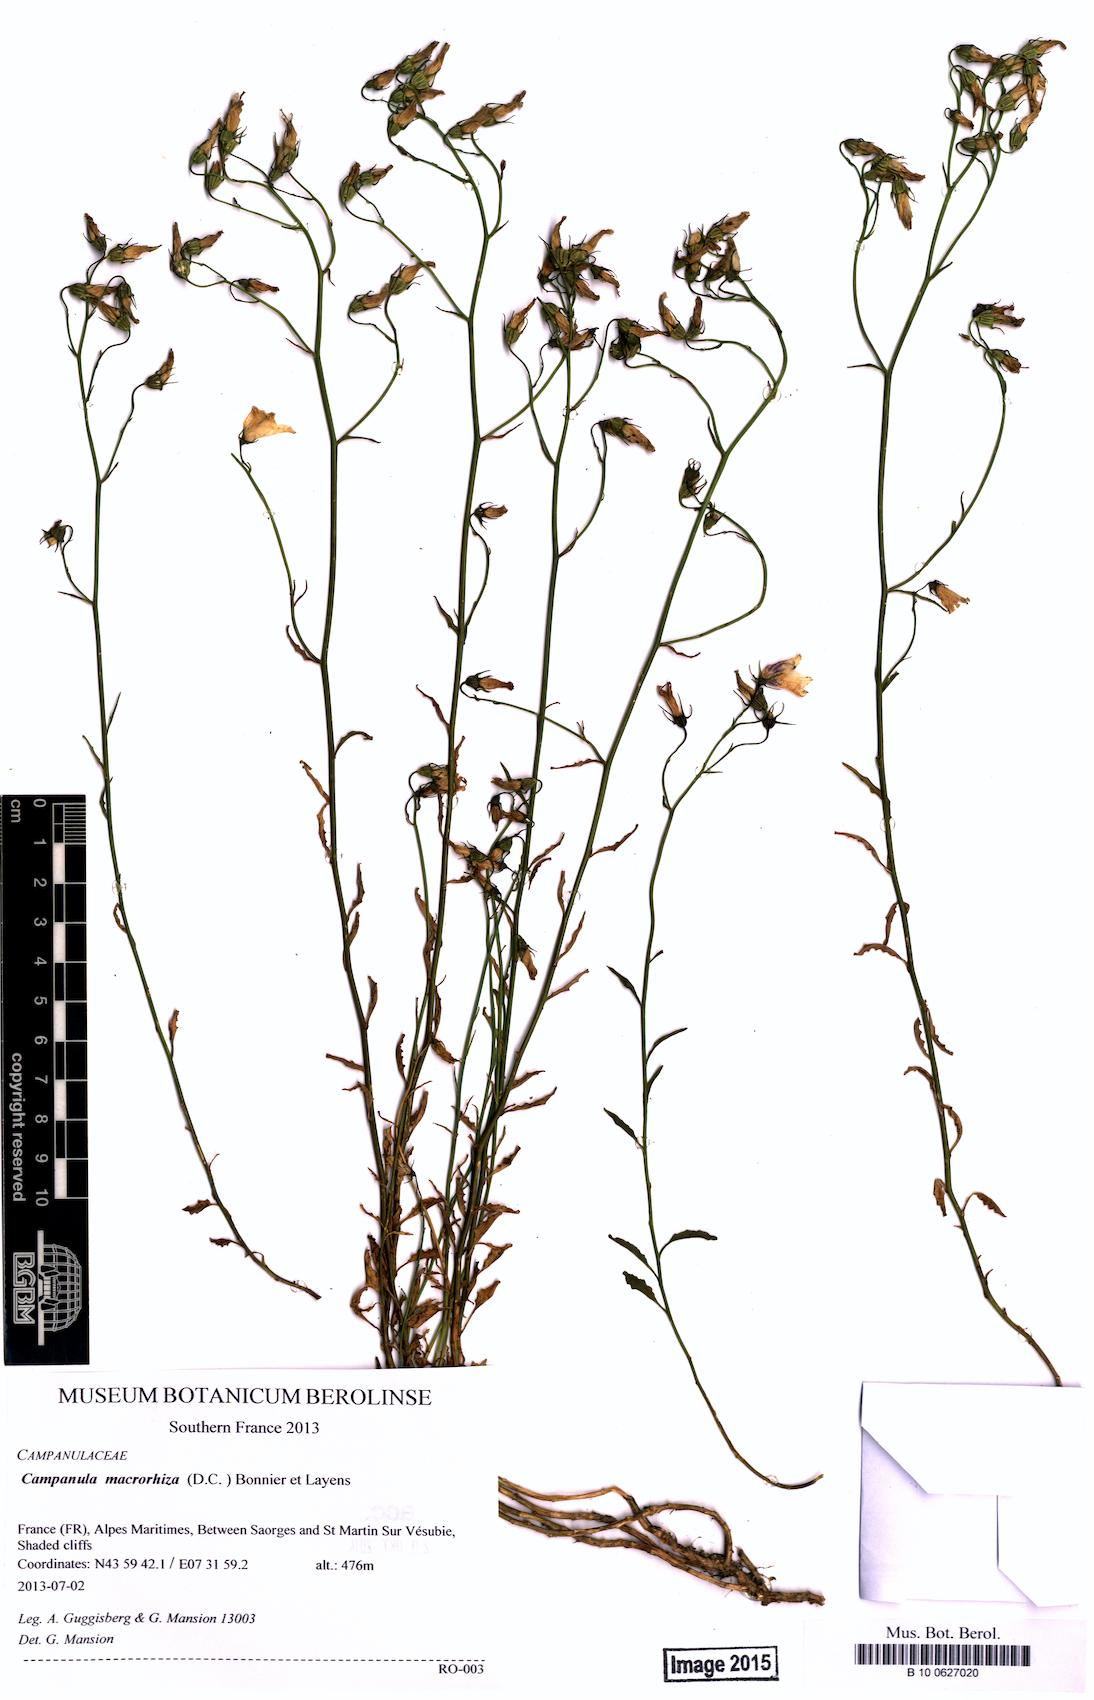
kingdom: Plantae
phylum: Tracheophyta
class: Magnoliopsida
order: Asterales
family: Campanulaceae
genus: Campanula
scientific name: Campanula macrorhiza
